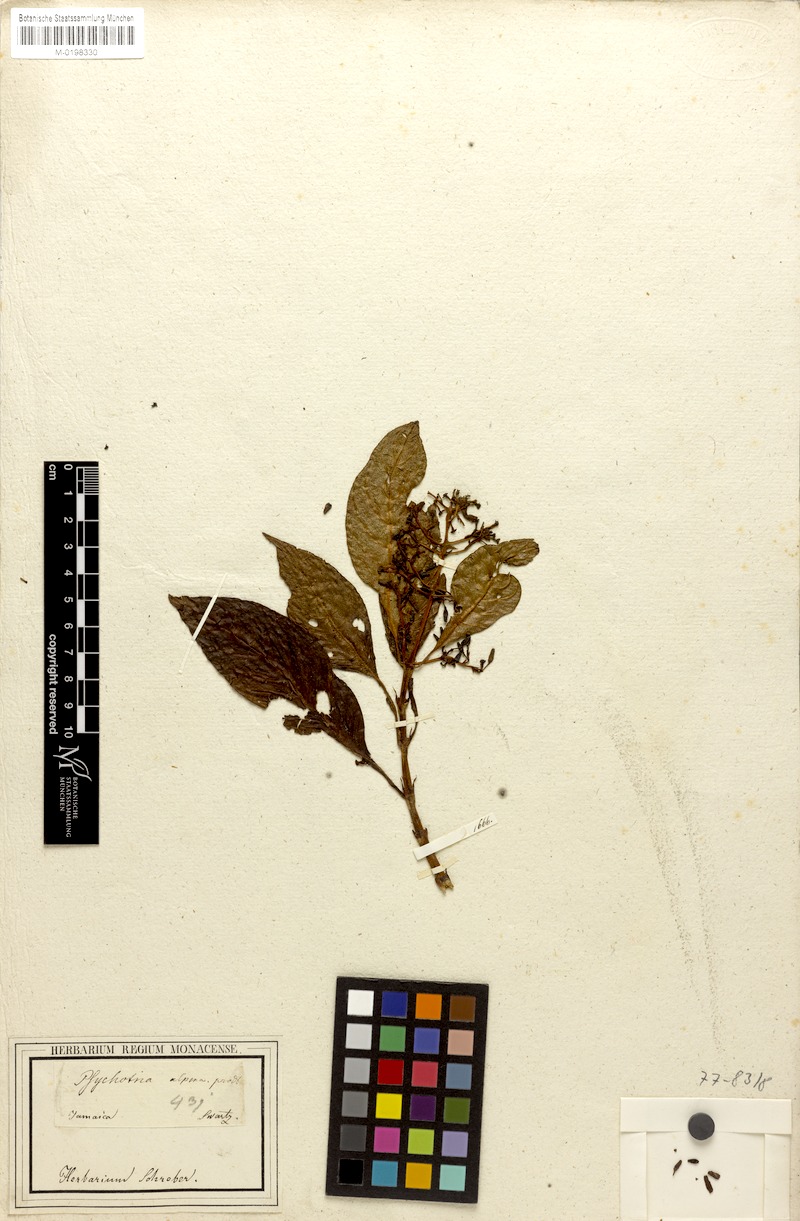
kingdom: Plantae
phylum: Tracheophyta
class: Magnoliopsida
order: Gentianales
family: Rubiaceae
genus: Palicourea
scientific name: Palicourea alpina
